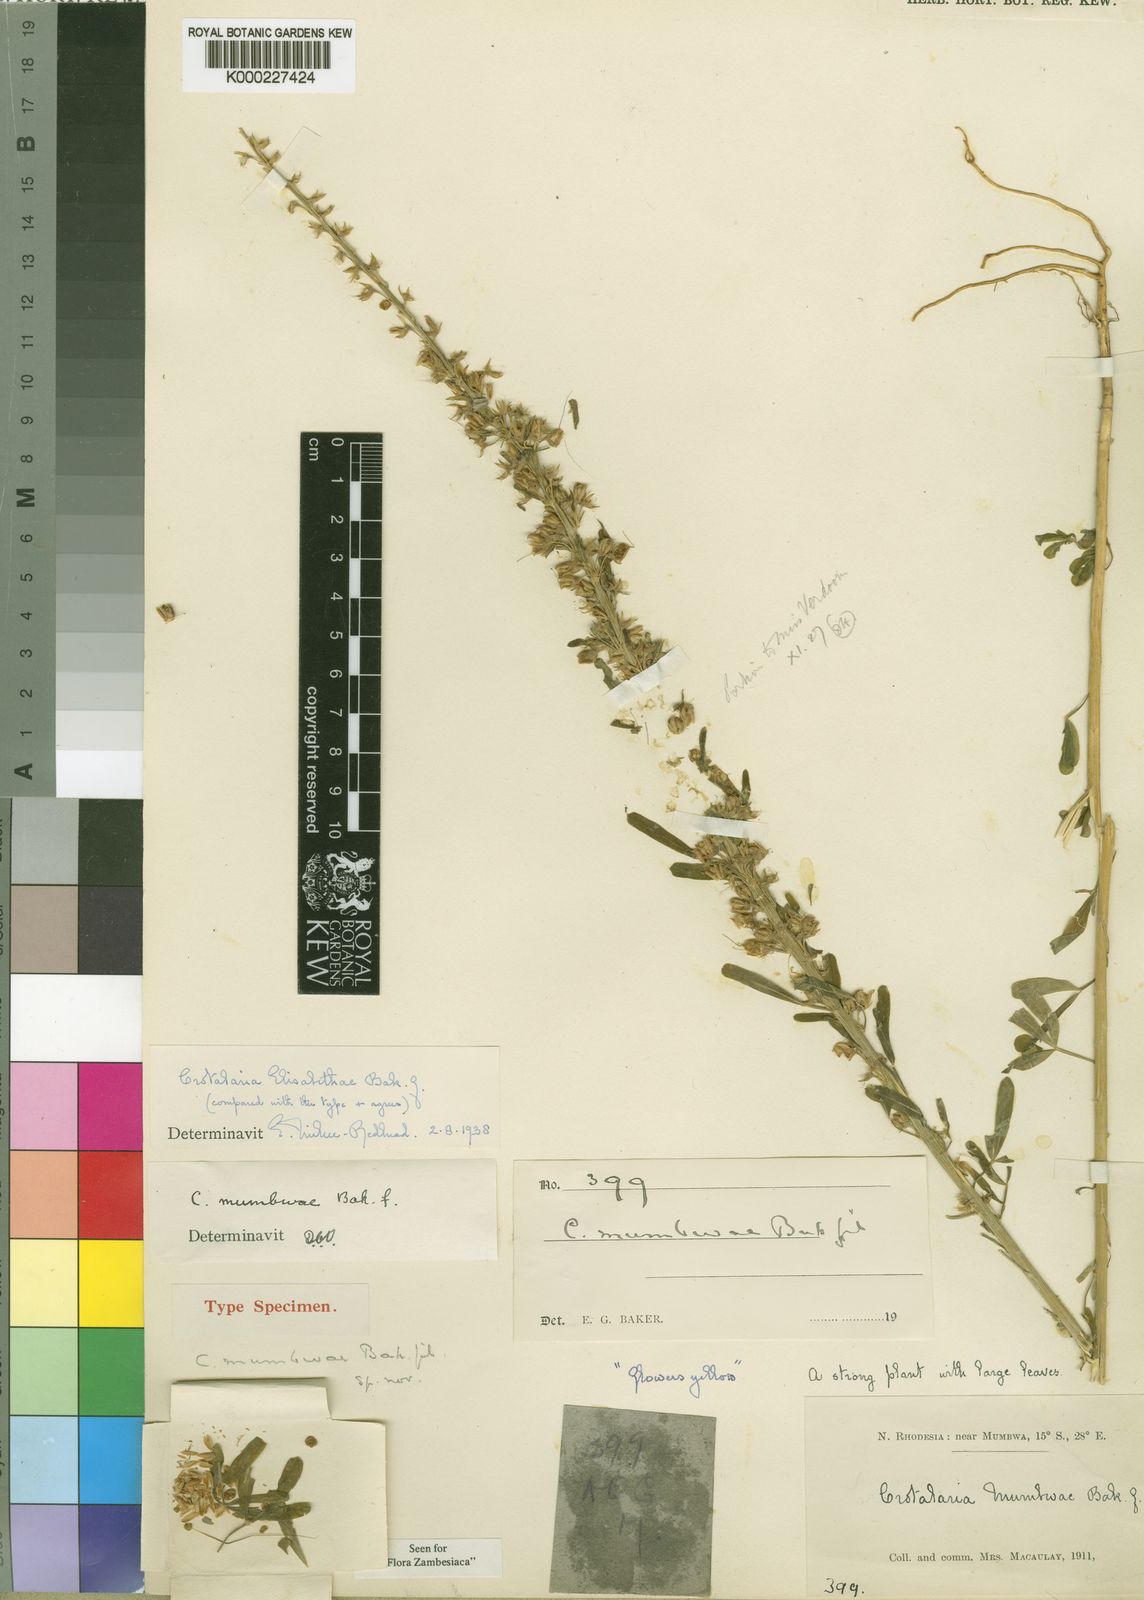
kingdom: Plantae
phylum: Tracheophyta
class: Magnoliopsida
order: Fabales
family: Fabaceae
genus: Crotalaria
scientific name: Crotalaria
